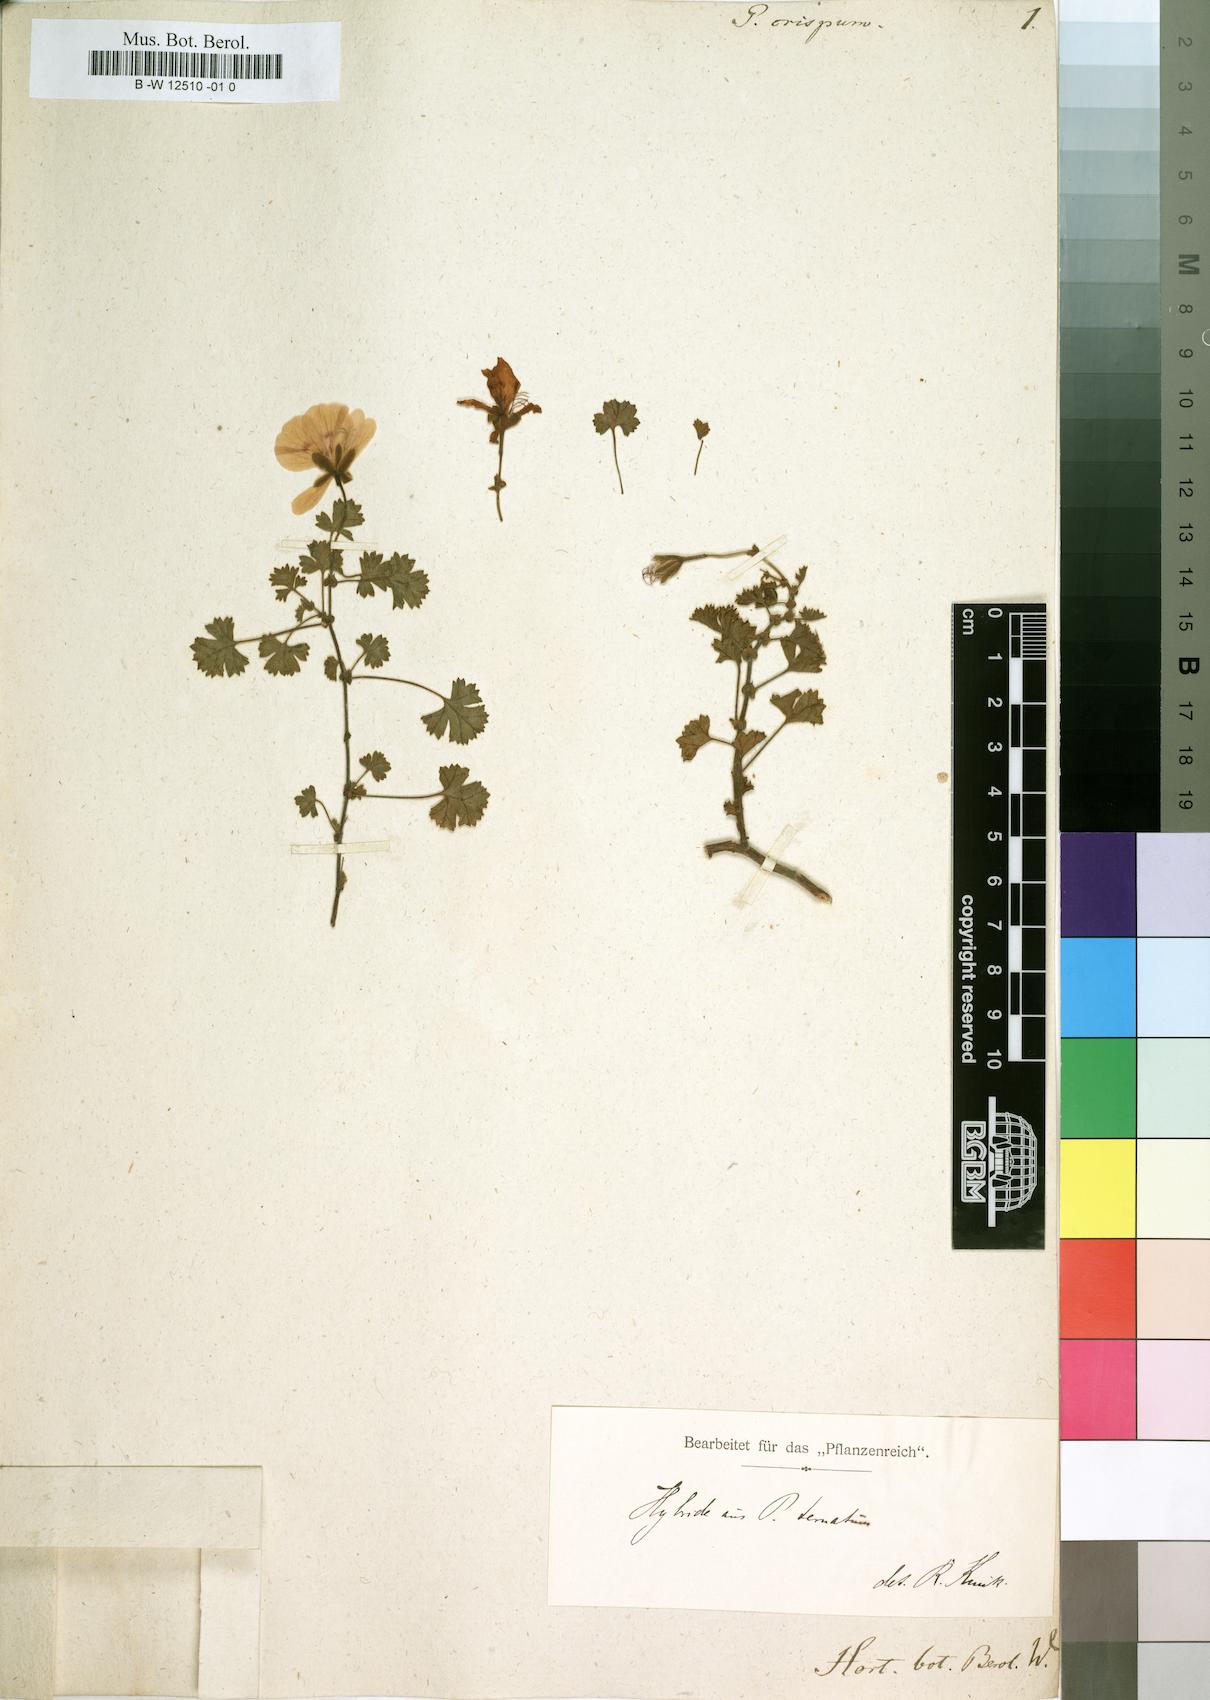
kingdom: Plantae
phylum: Tracheophyta
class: Magnoliopsida
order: Geraniales
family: Geraniaceae
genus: Pelargonium
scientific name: Pelargonium crispum
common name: Crisped-leaf pelargonium
